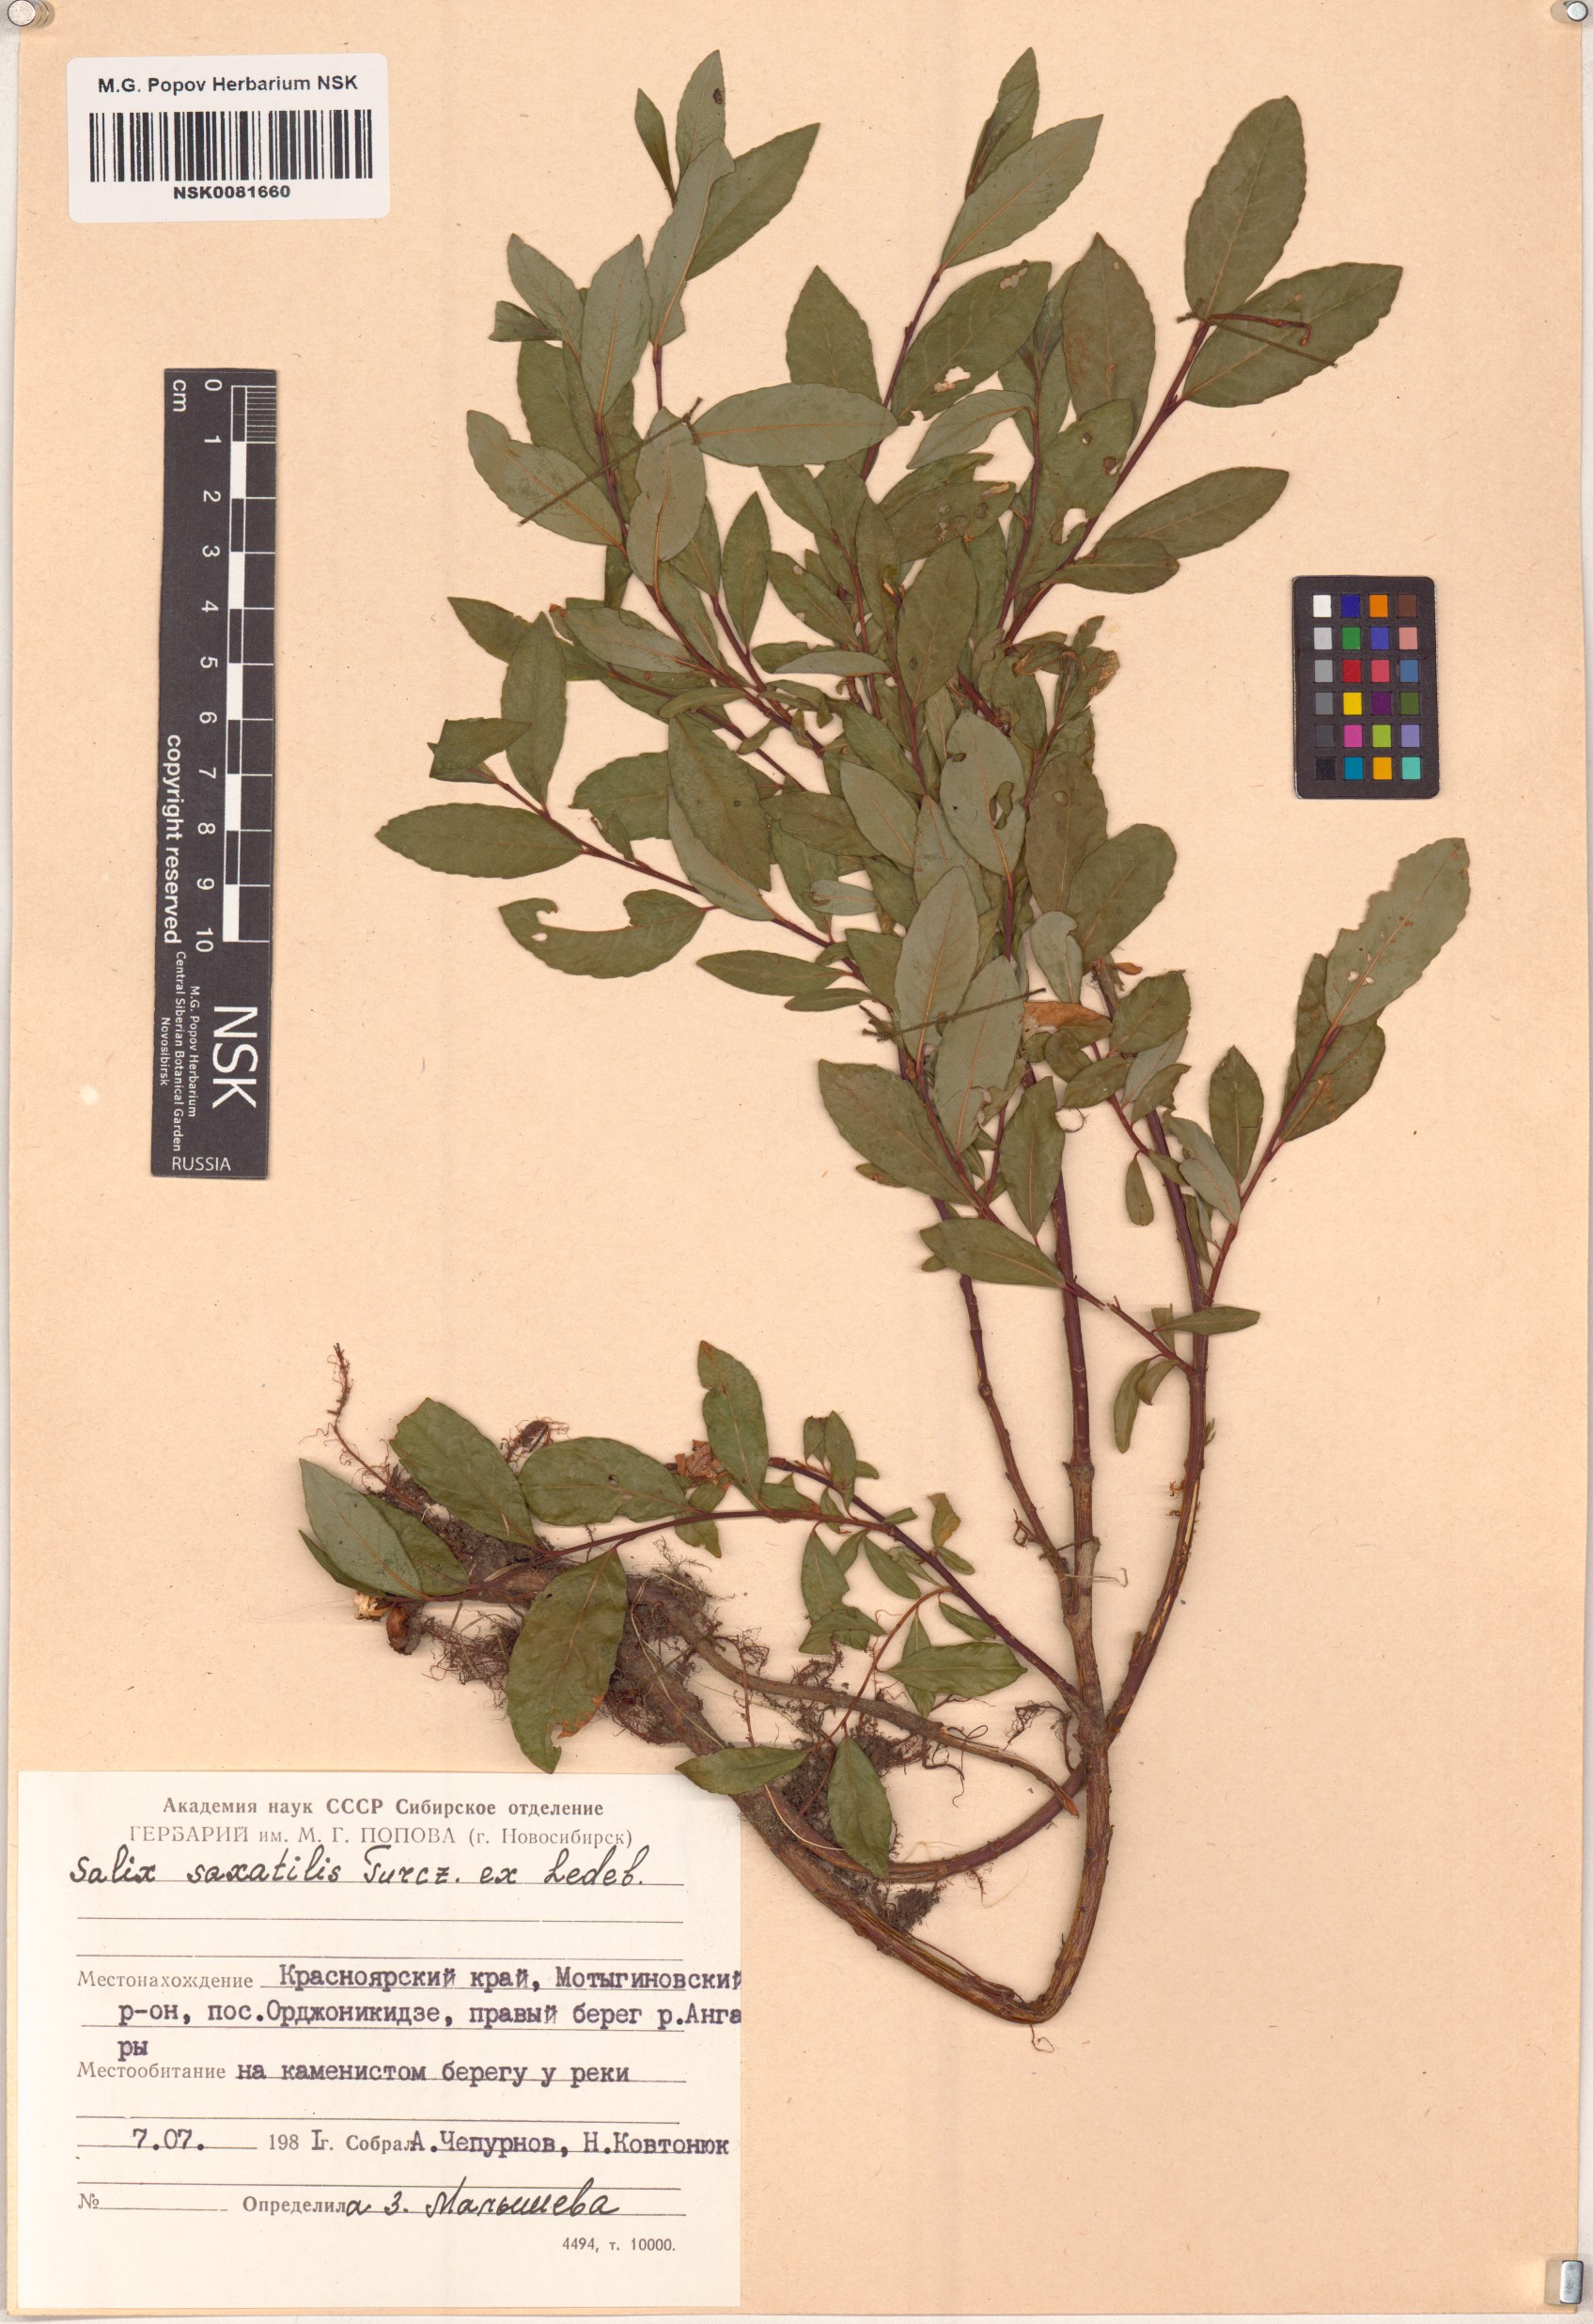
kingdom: Plantae
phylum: Tracheophyta
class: Magnoliopsida
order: Malpighiales
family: Salicaceae
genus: Salix
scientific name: Salix saxatilis
